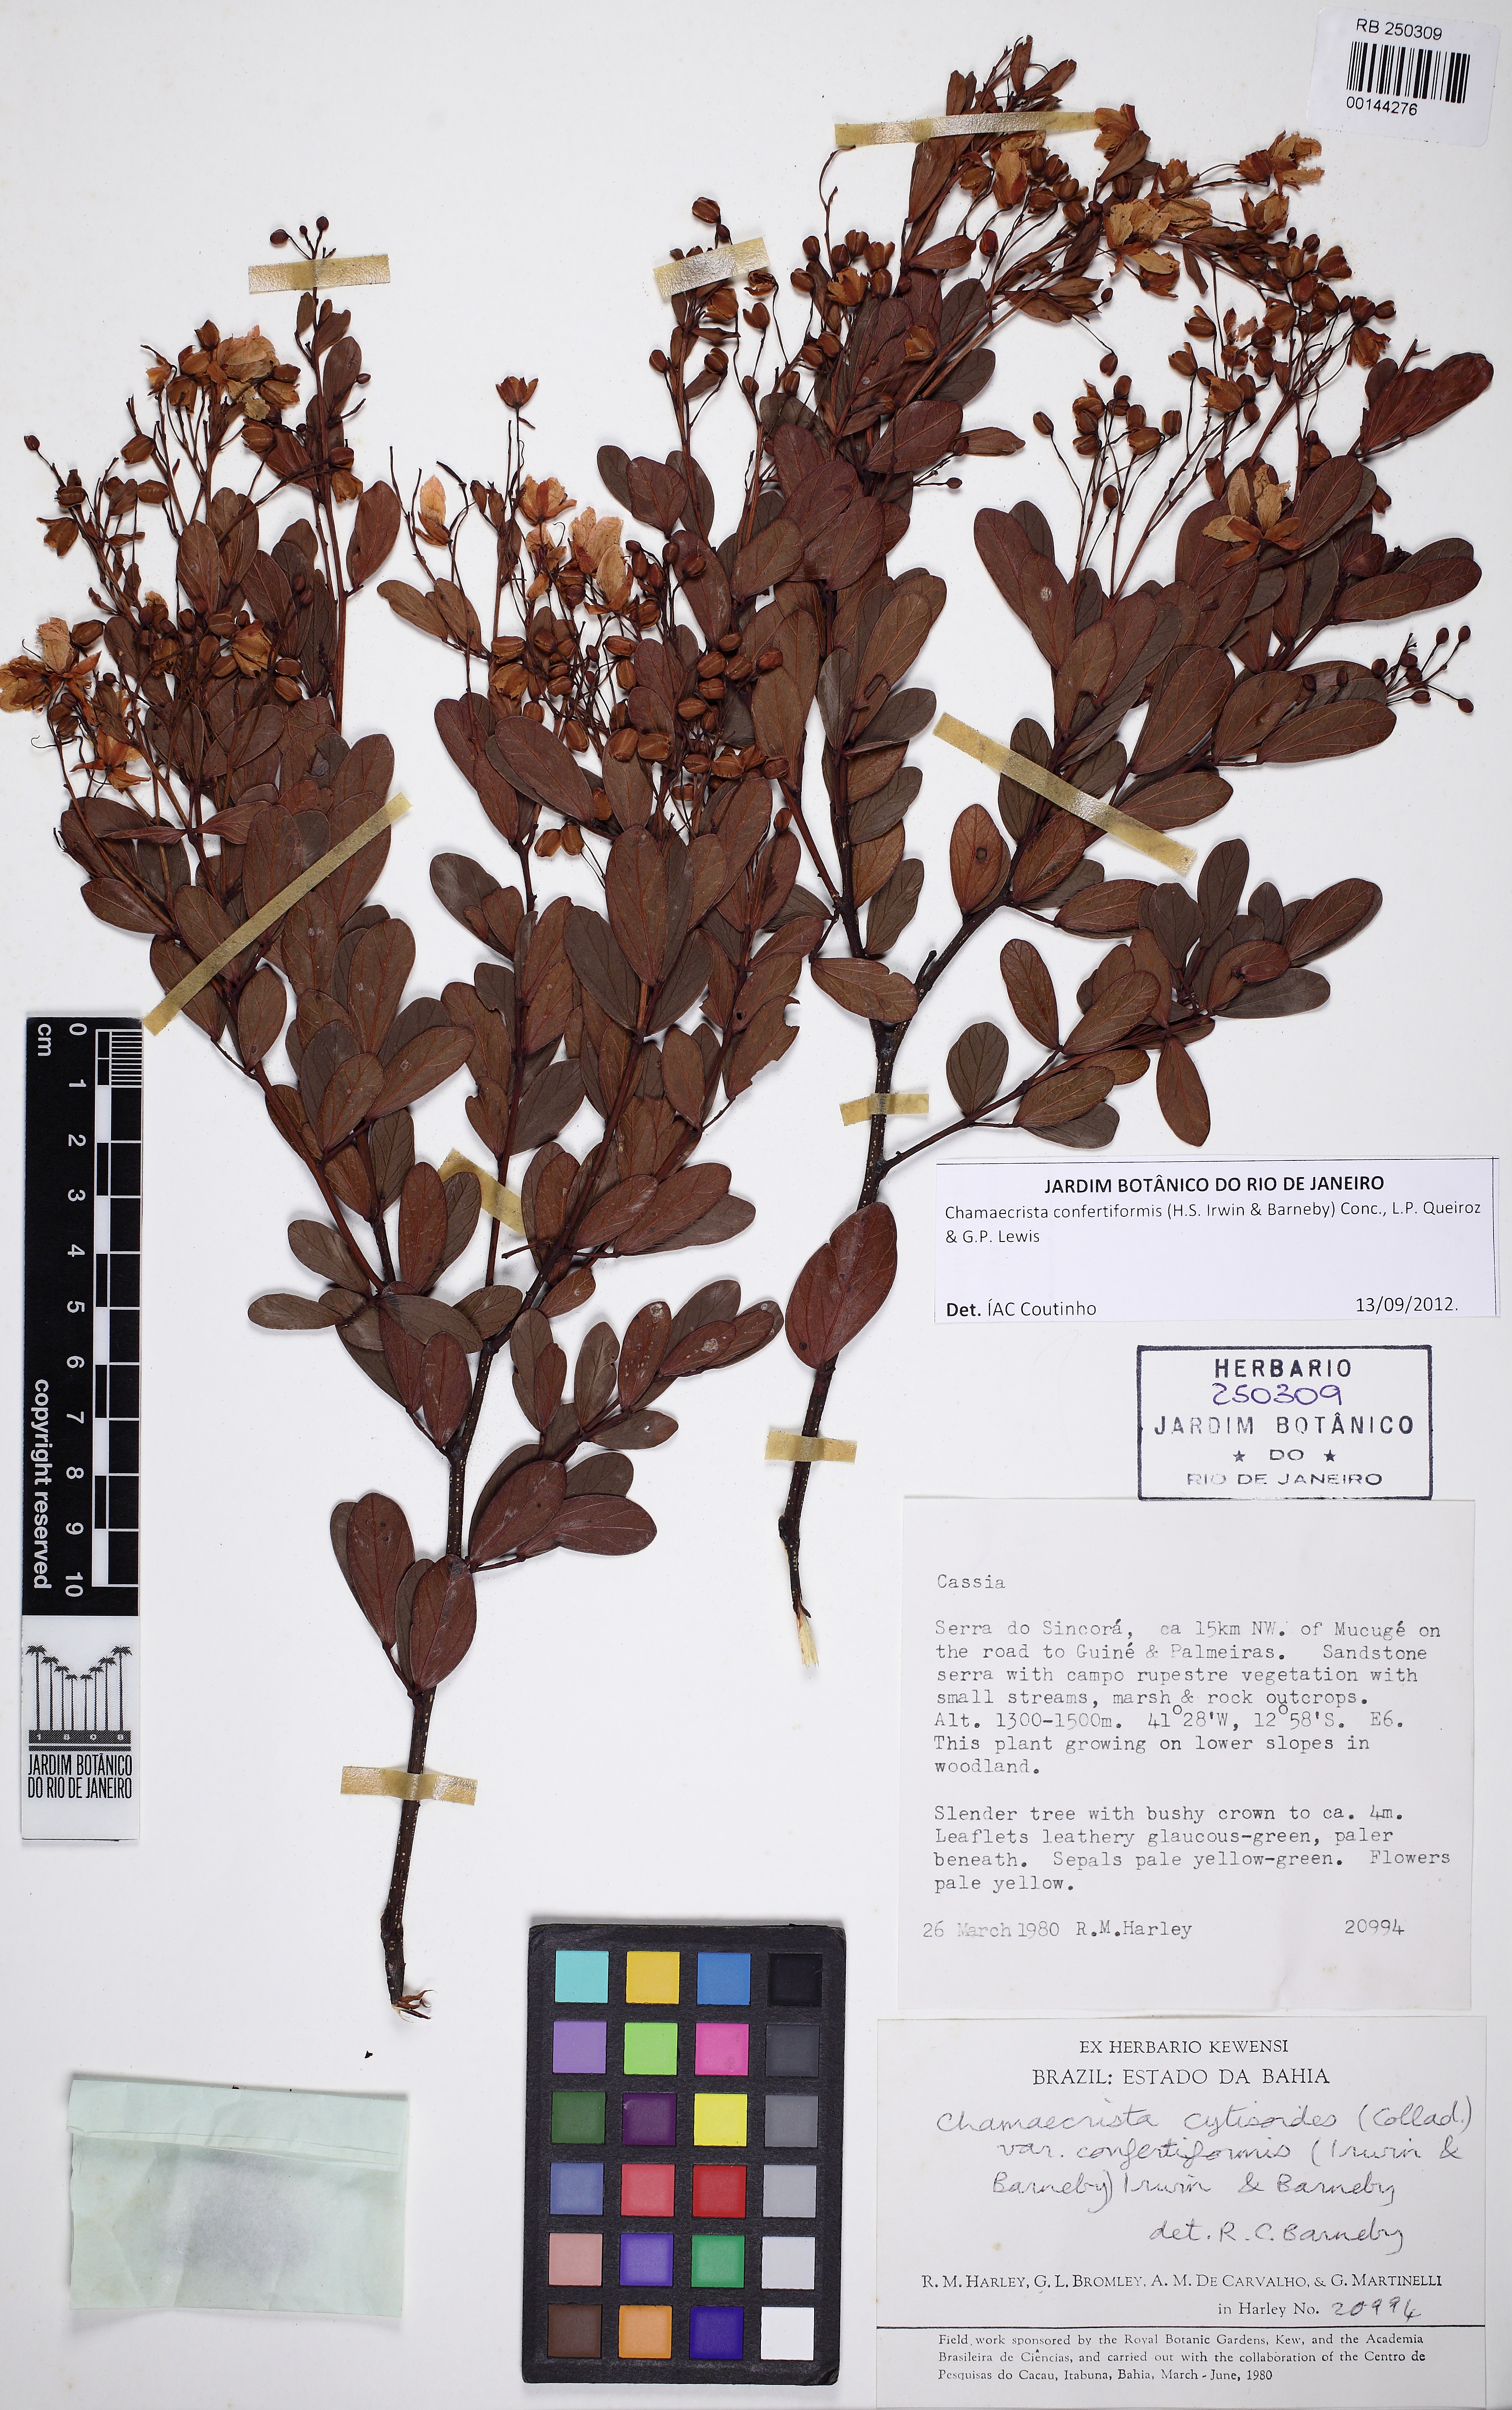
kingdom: Plantae
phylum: Tracheophyta
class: Magnoliopsida
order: Fabales
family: Fabaceae
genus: Chamaecrista
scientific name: Chamaecrista confertiformis
